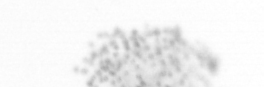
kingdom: Chromista
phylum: Ochrophyta
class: Bacillariophyceae
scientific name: Bacillariophyceae
